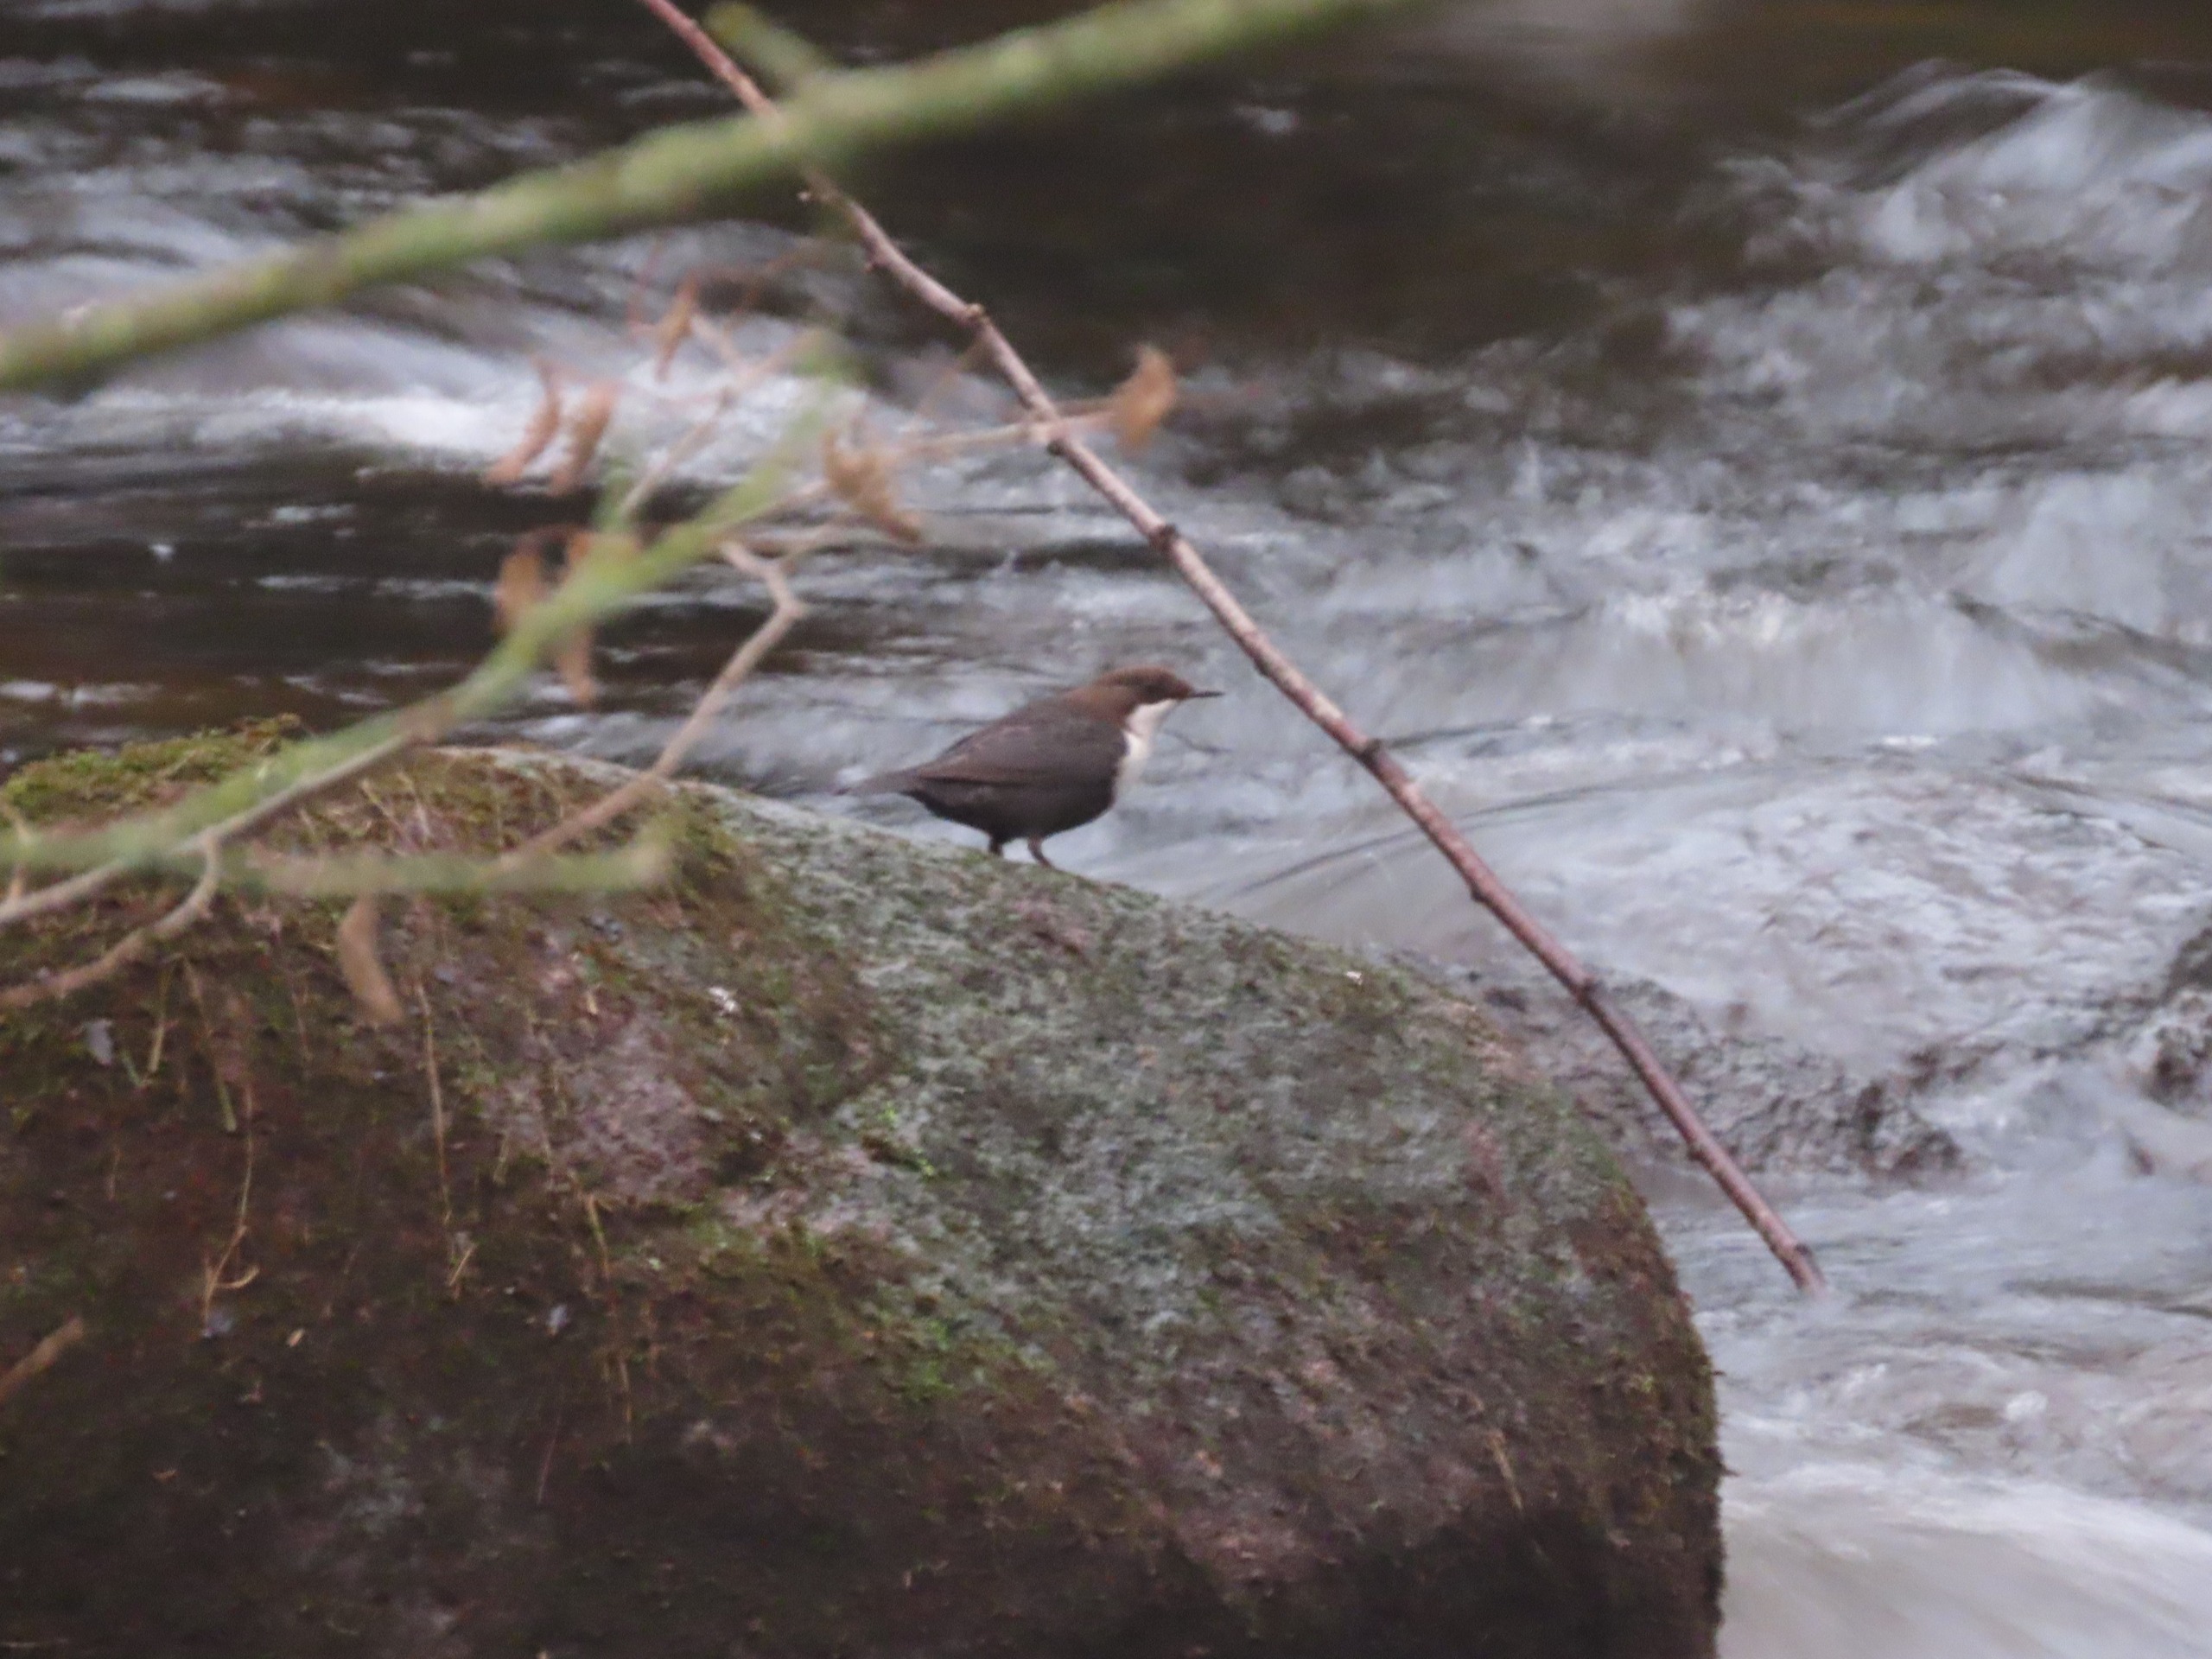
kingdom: Animalia
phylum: Chordata
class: Aves
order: Passeriformes
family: Cinclidae
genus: Cinclus
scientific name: Cinclus cinclus
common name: Vandstær
